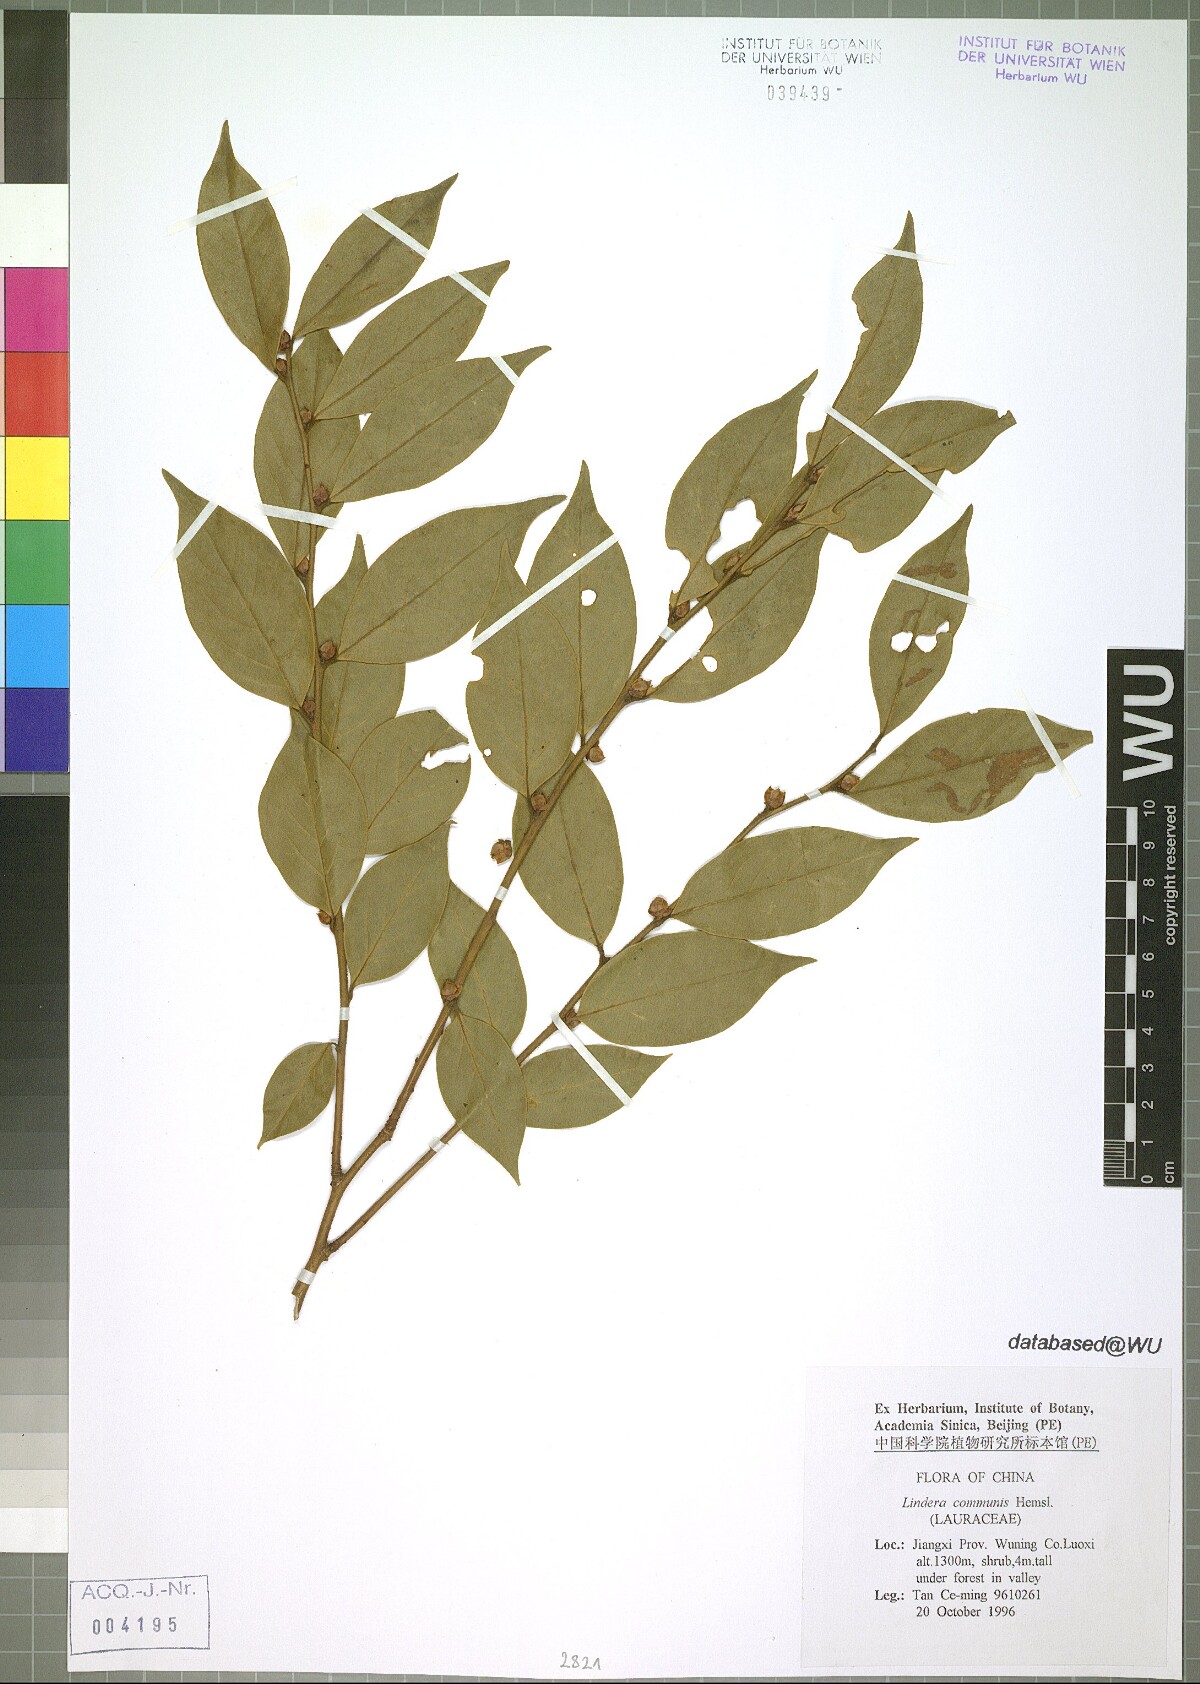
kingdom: Plantae
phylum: Tracheophyta
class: Magnoliopsida
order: Laurales
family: Lauraceae
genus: Lindera
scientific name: Lindera communis
